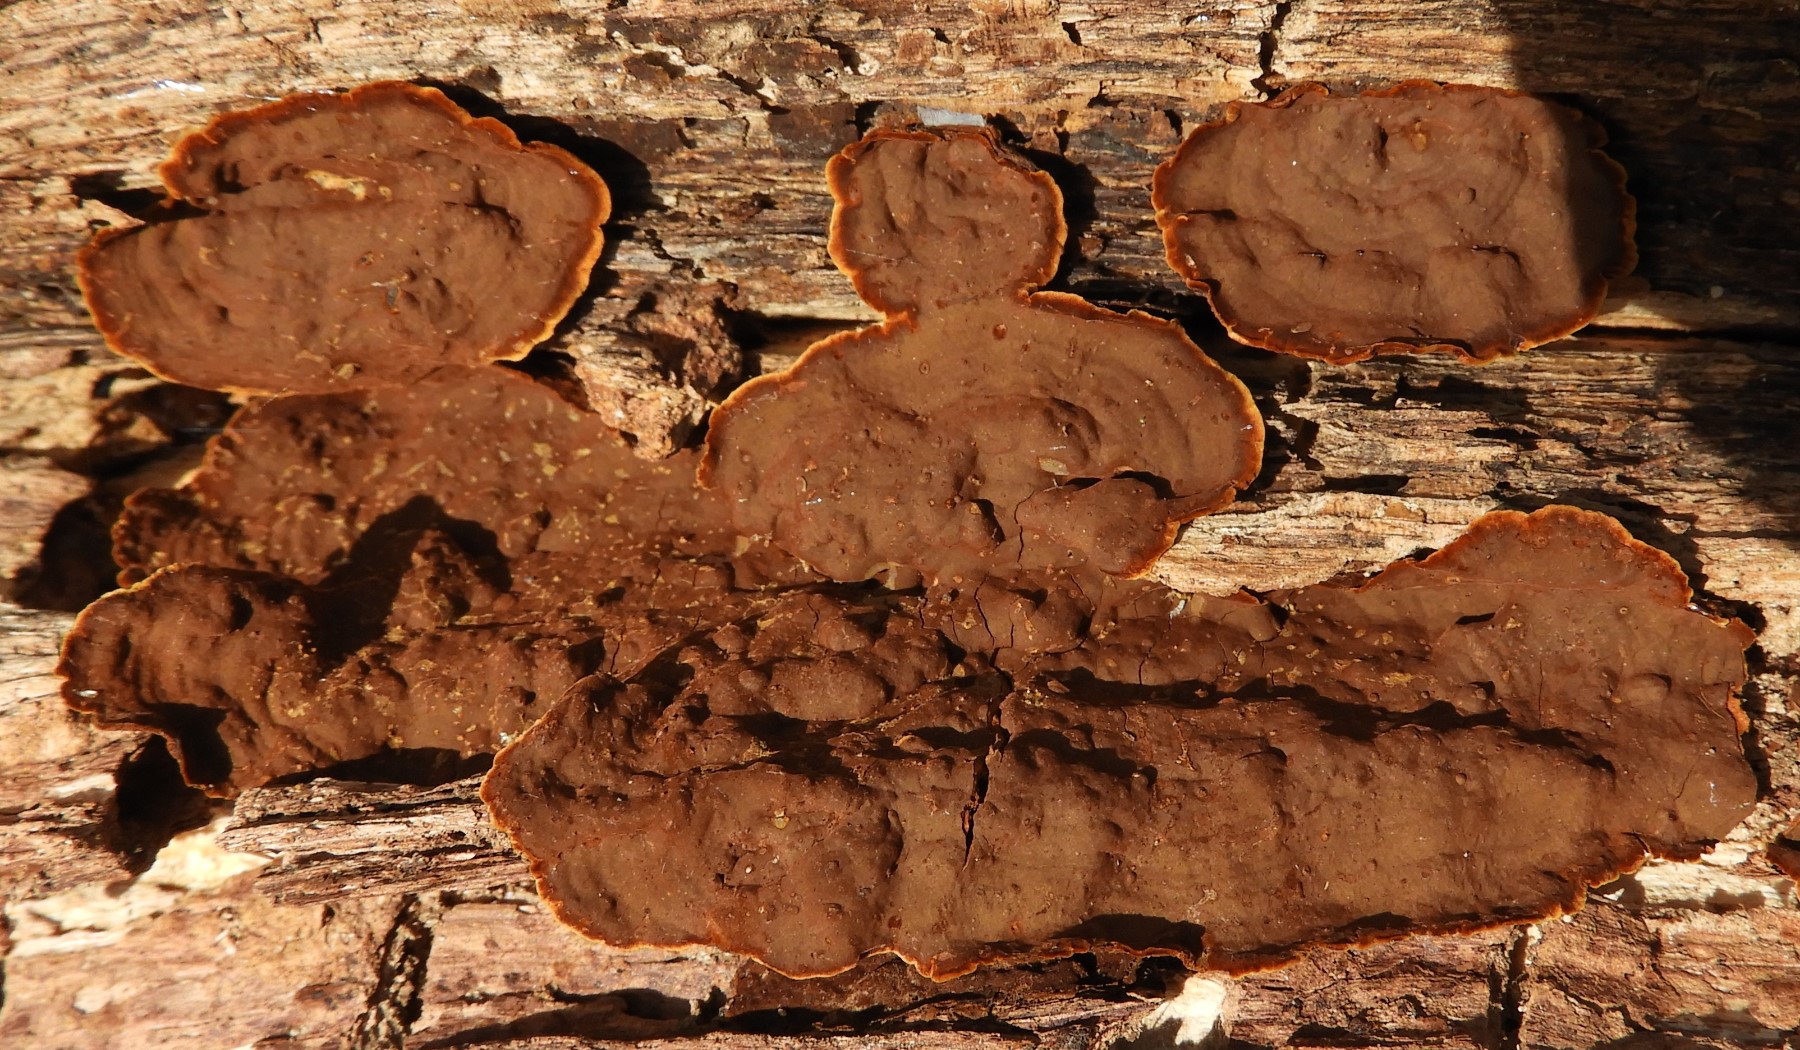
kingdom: Fungi
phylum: Basidiomycota
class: Agaricomycetes
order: Hymenochaetales
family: Hymenochaetaceae
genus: Hymenochaete
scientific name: Hymenochaete rubiginosa
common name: stiv ruslædersvamp
